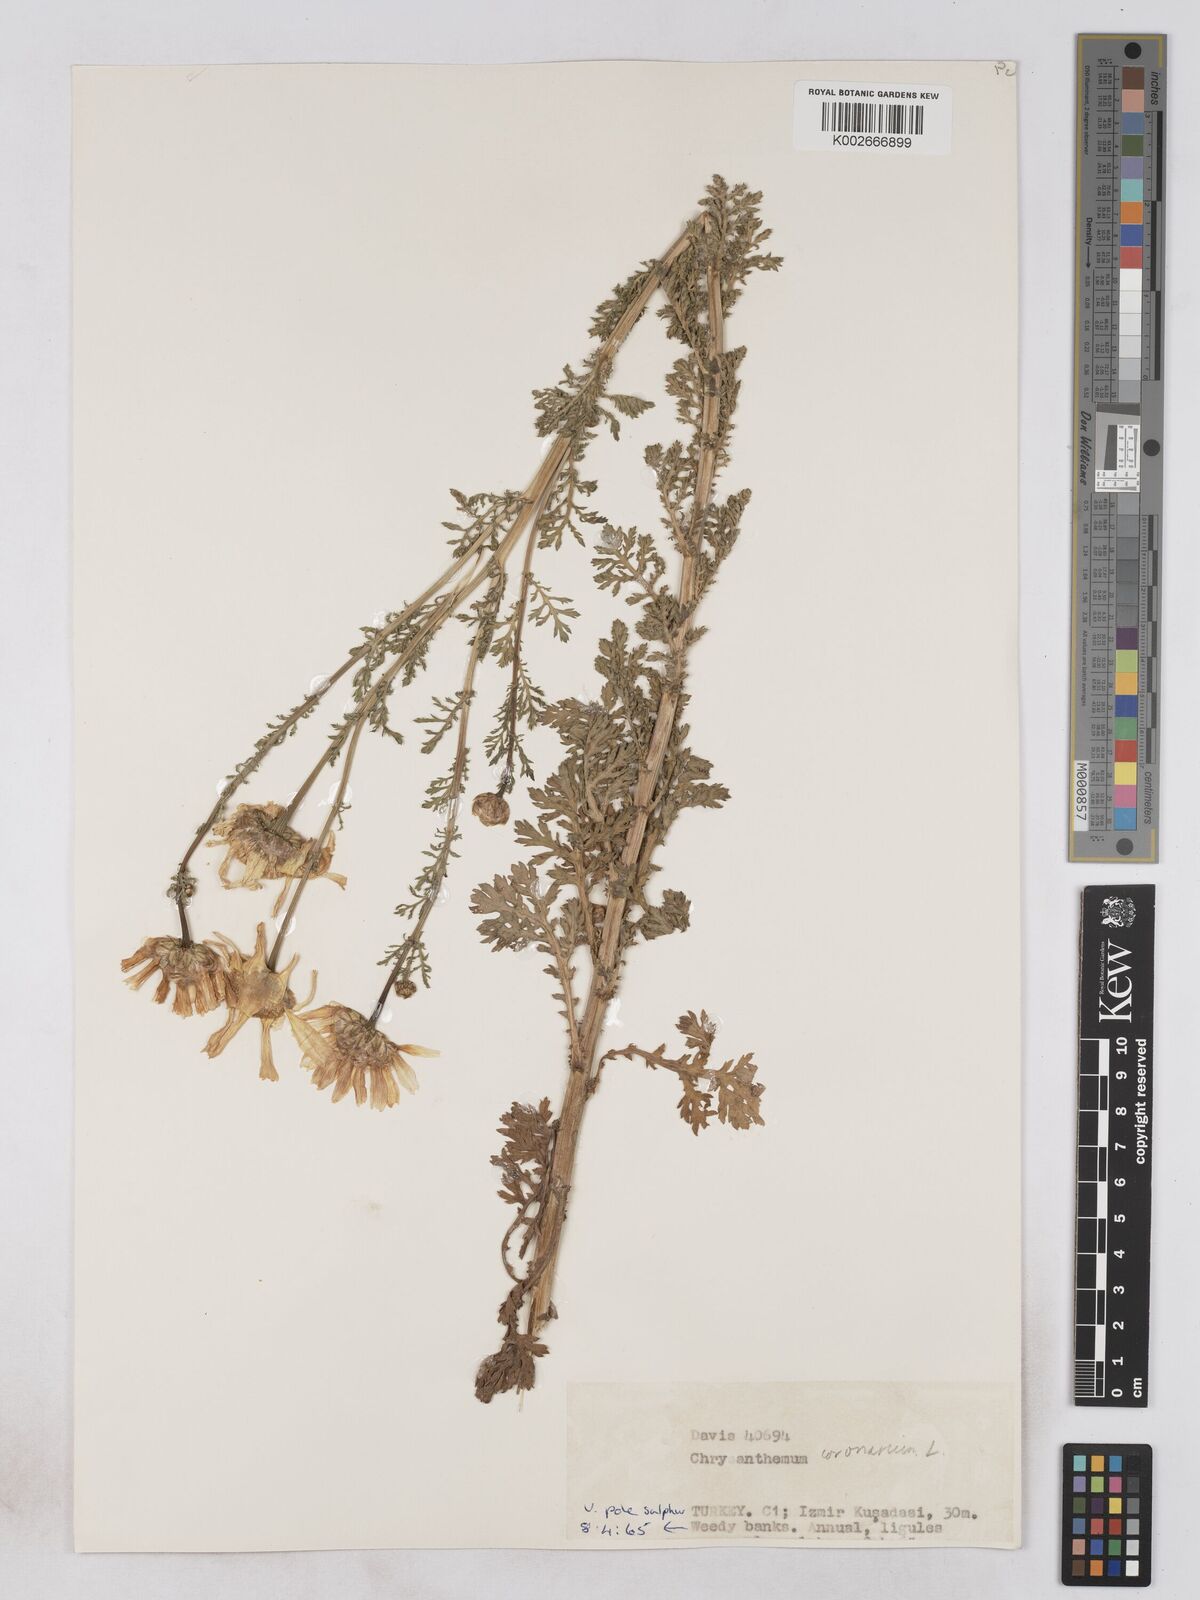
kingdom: Plantae
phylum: Tracheophyta
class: Magnoliopsida
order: Asterales
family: Asteraceae
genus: Glebionis
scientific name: Glebionis coronaria
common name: Crowndaisy
